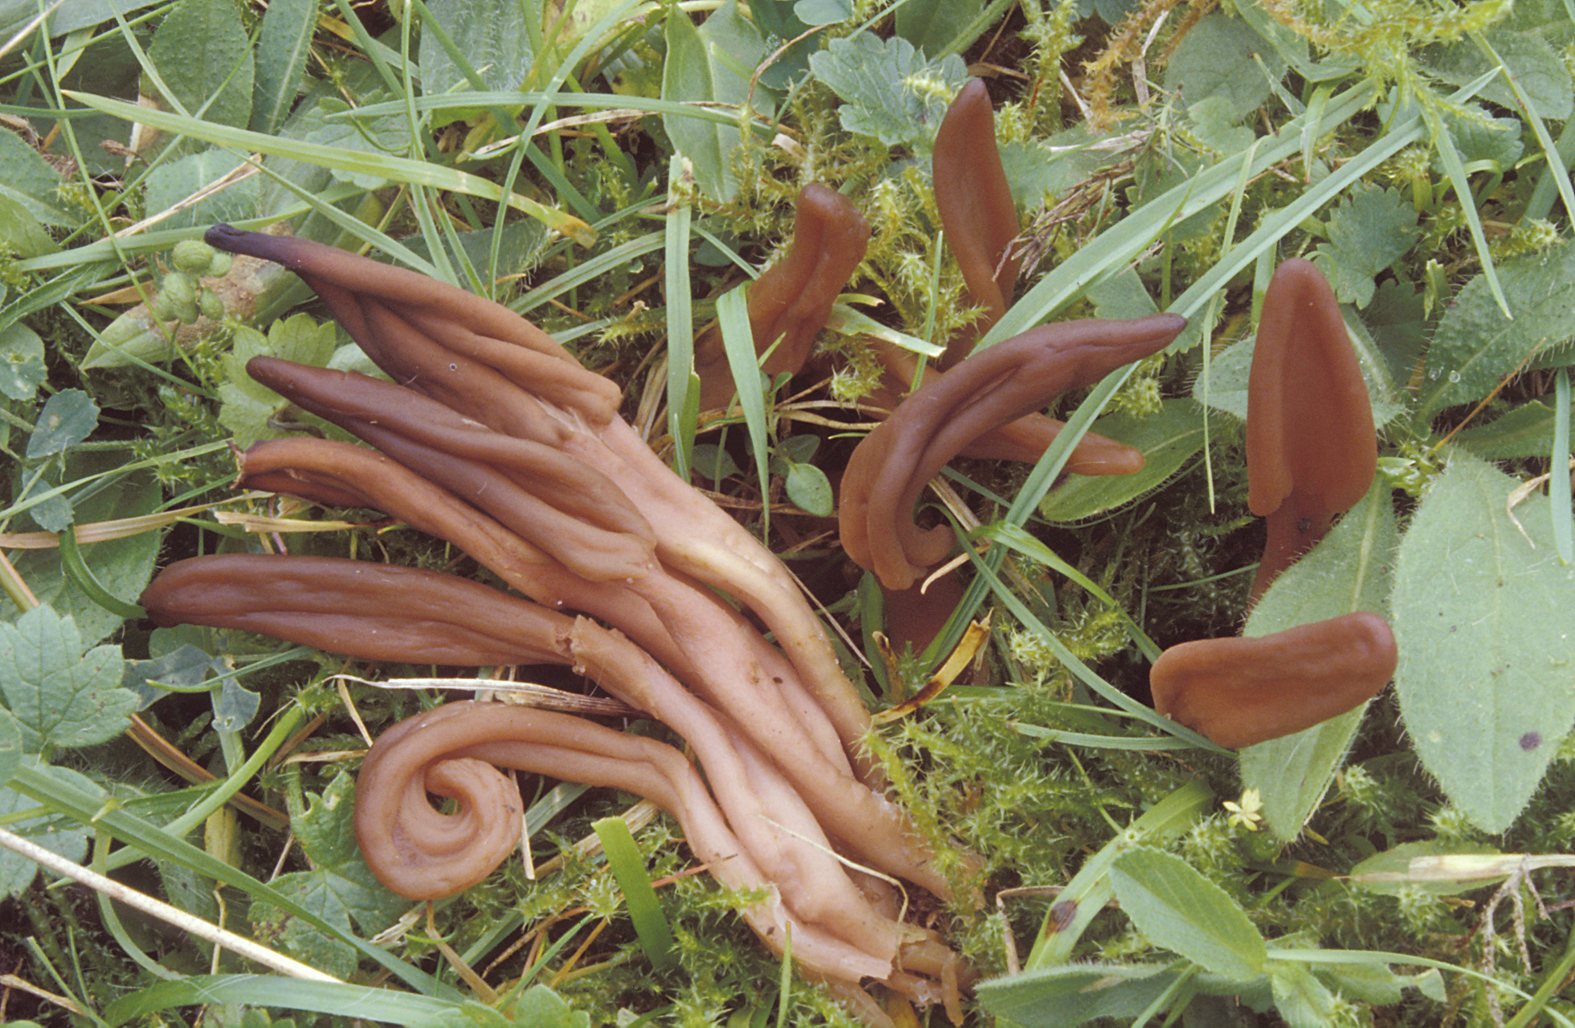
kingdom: Fungi
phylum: Ascomycota
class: Leotiomycetes
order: Helotiales
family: Lachnaceae
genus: Microglossum
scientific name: Microglossum
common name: farvetunge
